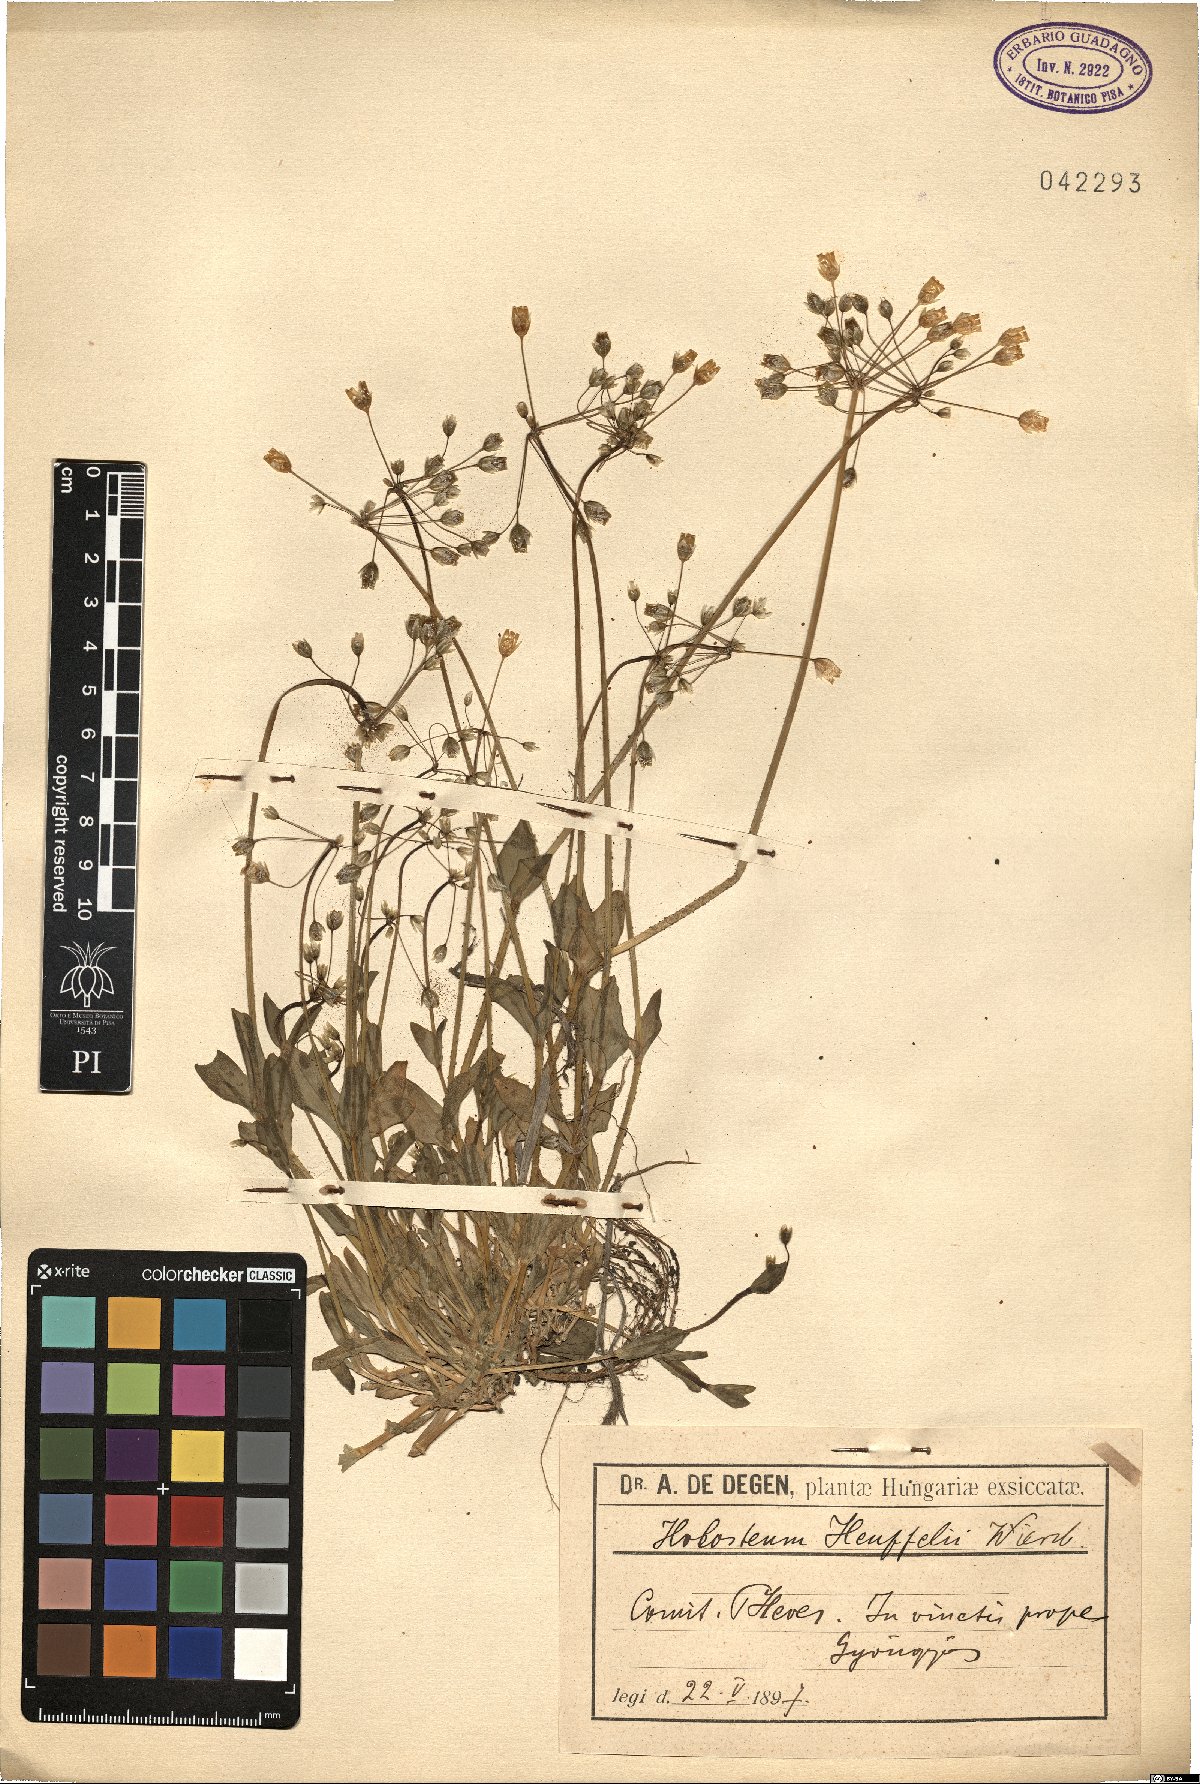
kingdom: Plantae
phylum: Tracheophyta
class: Magnoliopsida
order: Caryophyllales
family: Caryophyllaceae
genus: Holosteum
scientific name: Holosteum glutinosum
